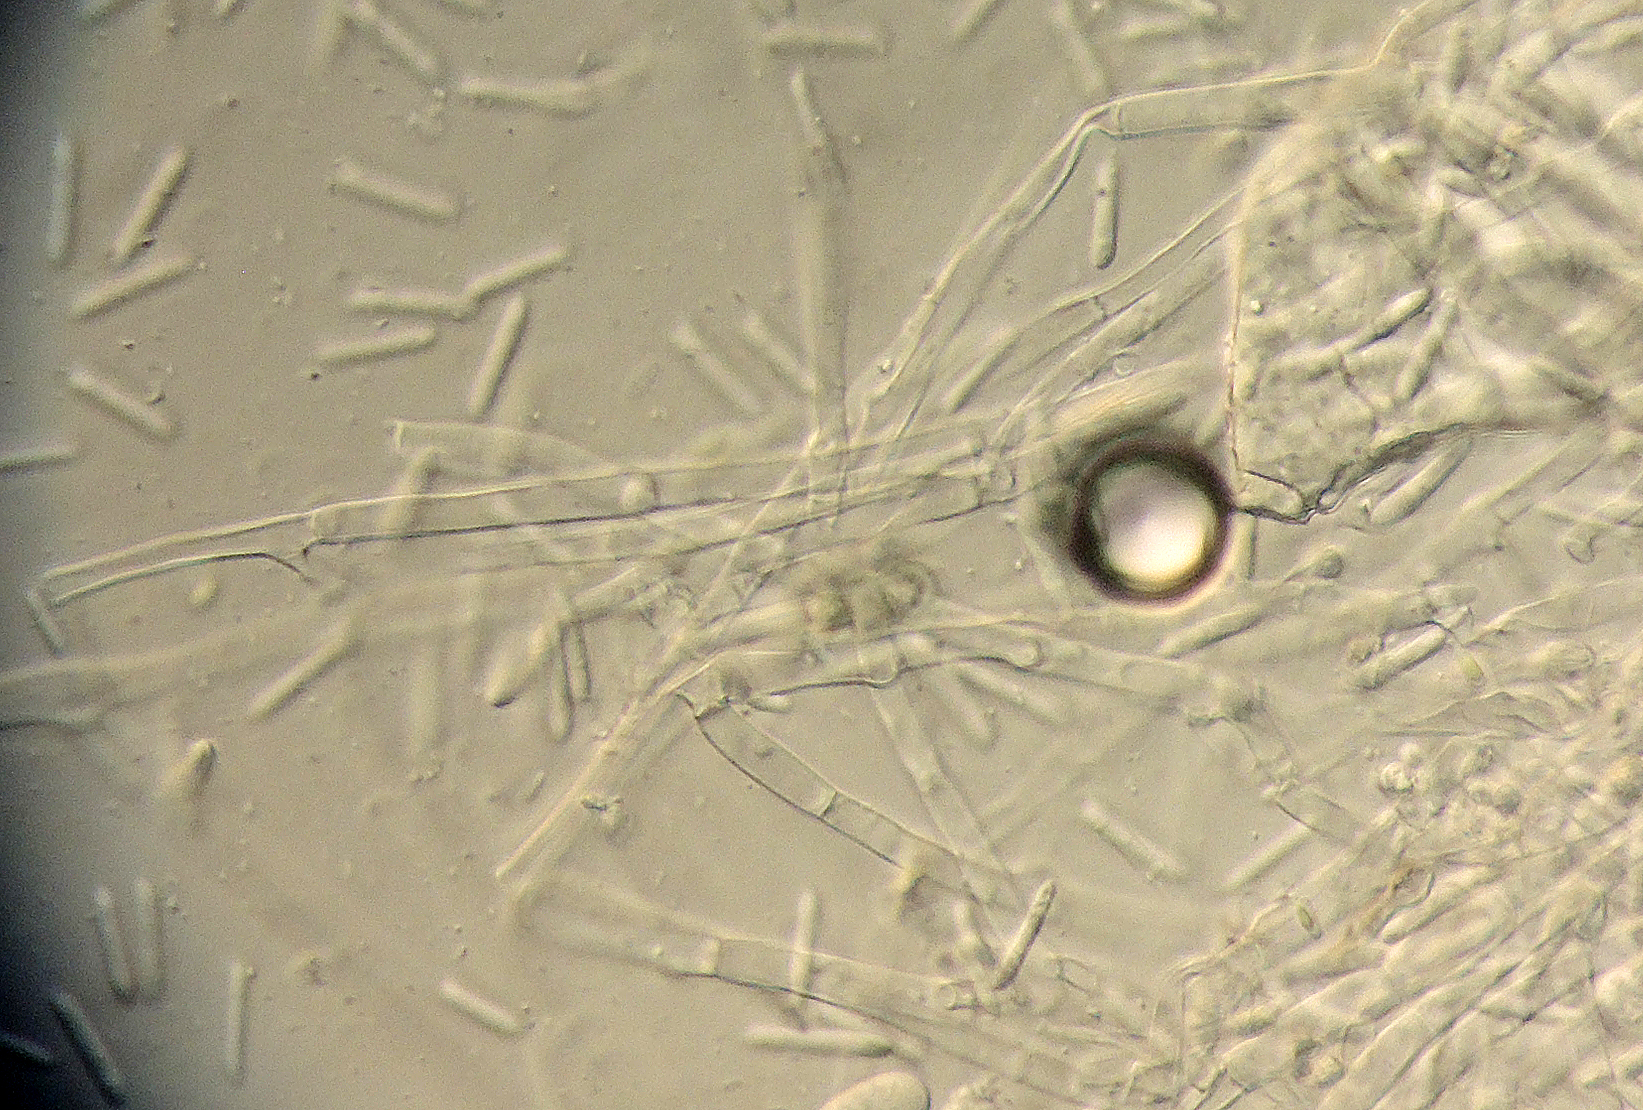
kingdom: Fungi
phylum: Ascomycota
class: Sordariomycetes
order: Hypocreales
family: Nectriaceae
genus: Cylindrodendrum
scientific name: Cylindrodendrum album
